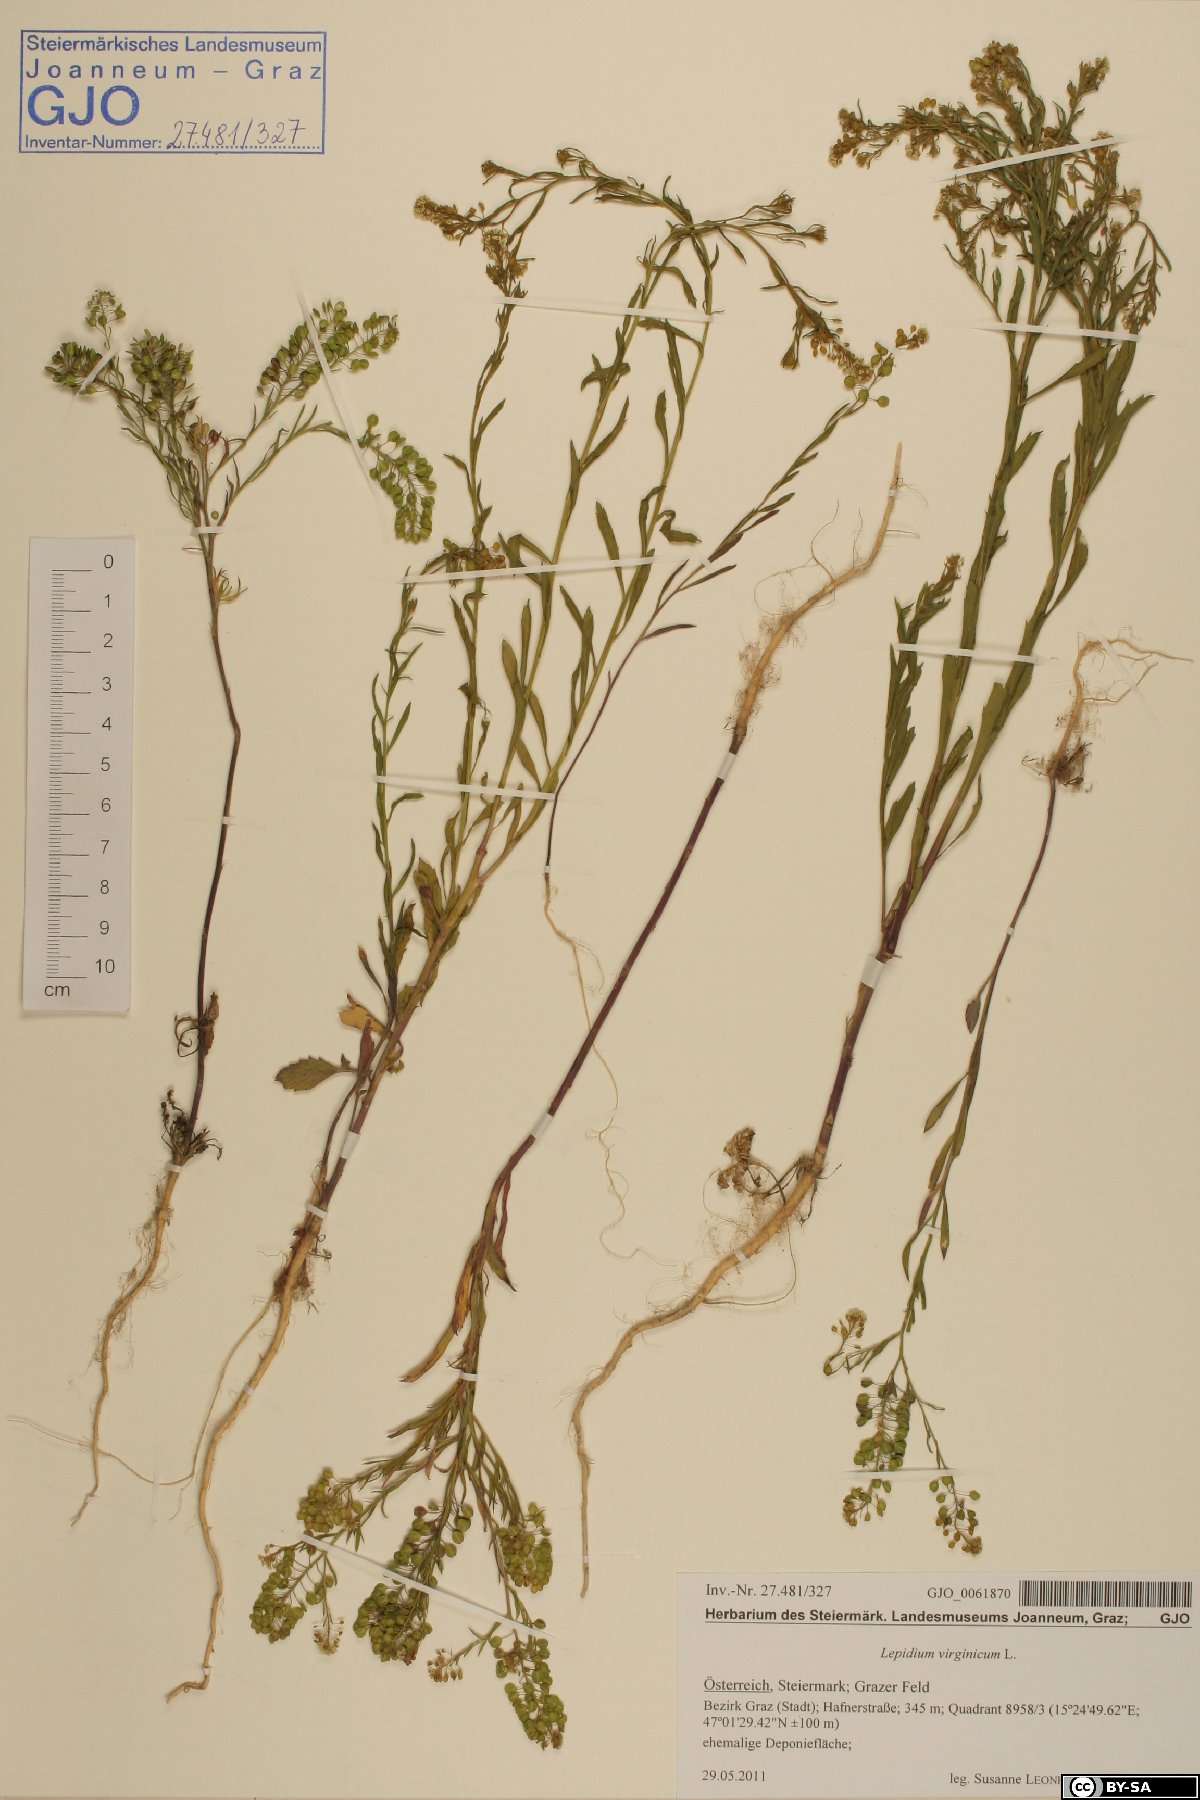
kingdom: Plantae
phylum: Tracheophyta
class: Magnoliopsida
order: Brassicales
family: Brassicaceae
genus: Lepidium
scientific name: Lepidium virginicum
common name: Least pepperwort
